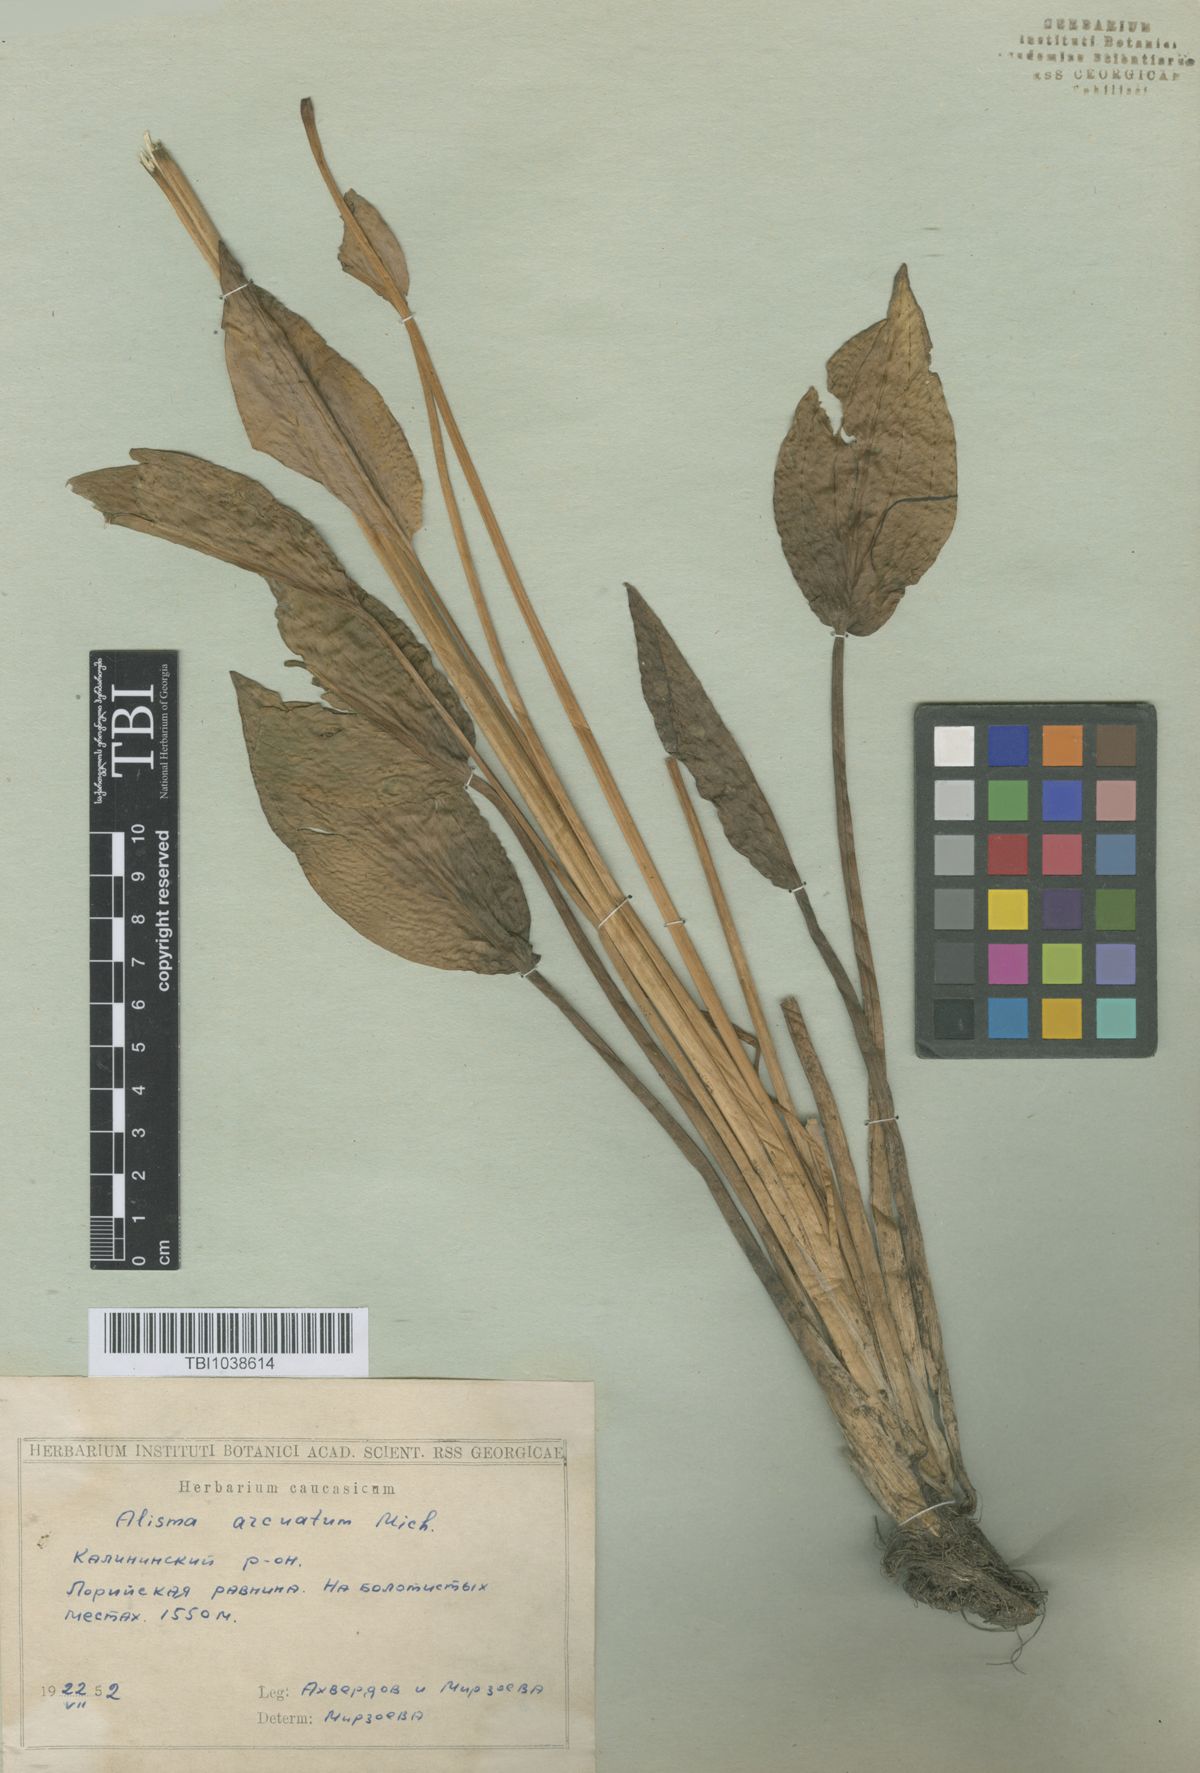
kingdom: Plantae
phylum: Tracheophyta
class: Liliopsida
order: Alismatales
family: Alismataceae
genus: Alisma
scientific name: Alisma gramineum
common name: Ribbon-leaved water-plantain
